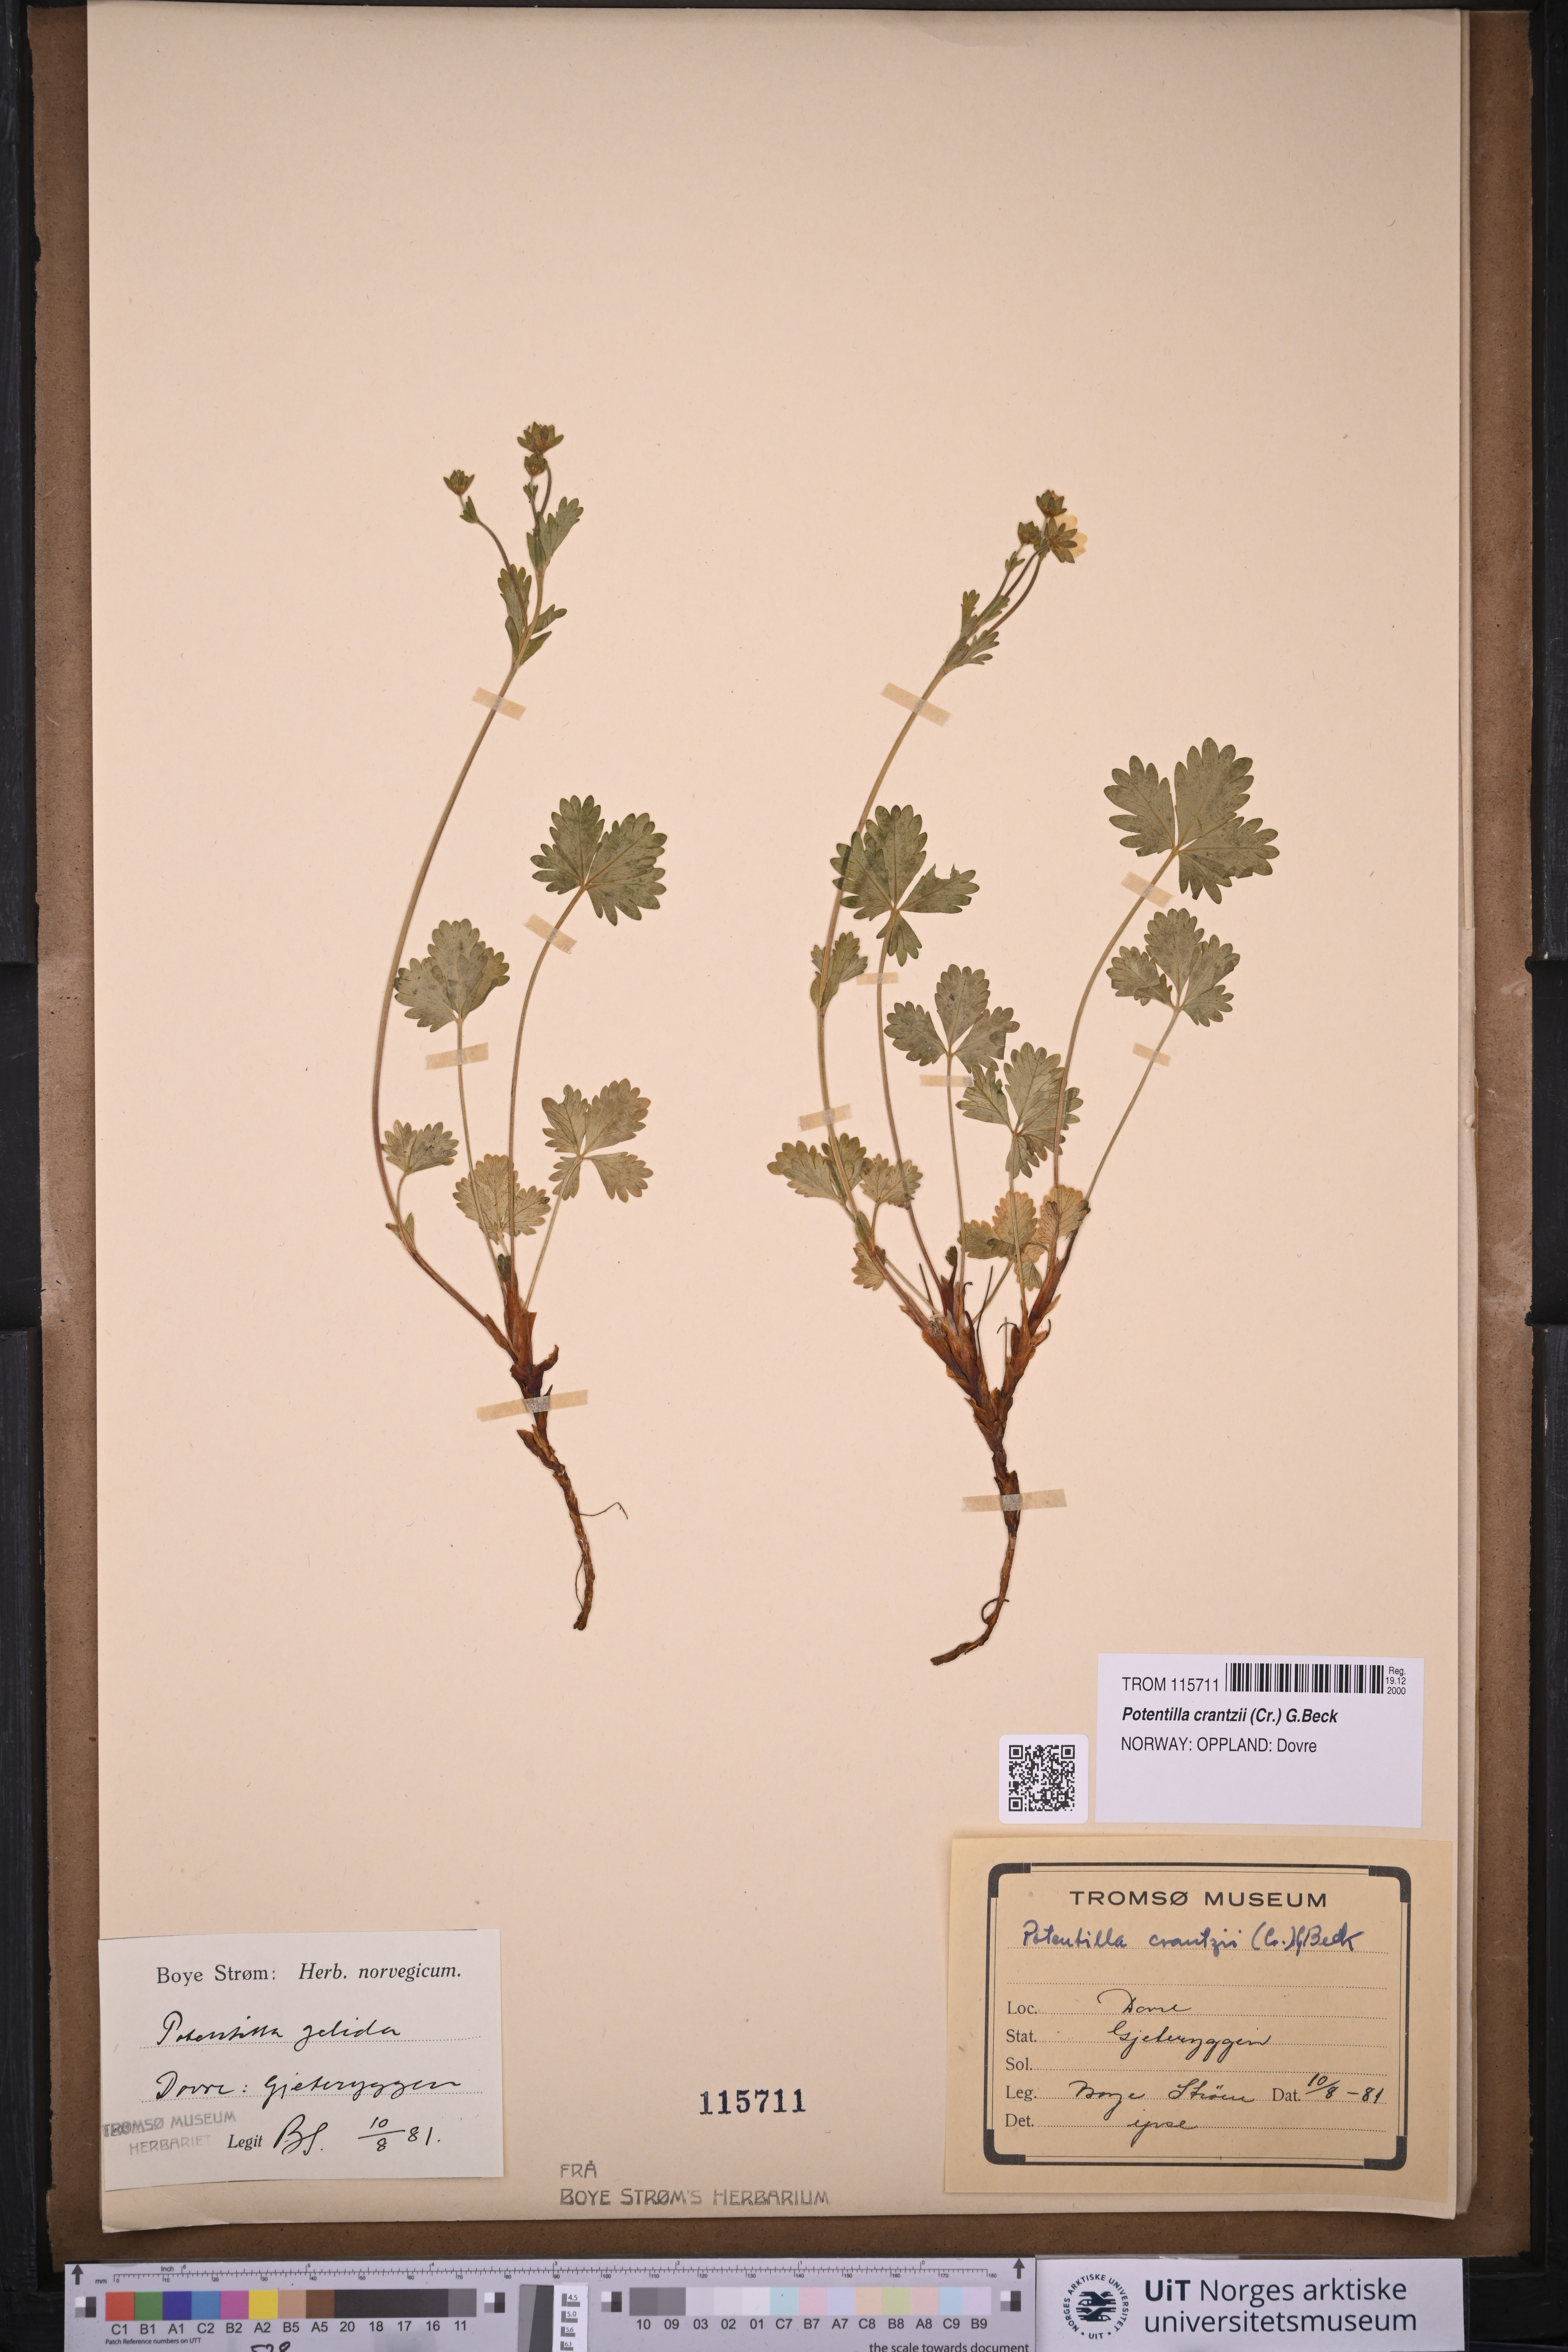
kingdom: Plantae
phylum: Tracheophyta
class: Magnoliopsida
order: Rosales
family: Rosaceae
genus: Potentilla
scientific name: Potentilla crantzii
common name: Alpine cinquefoil
